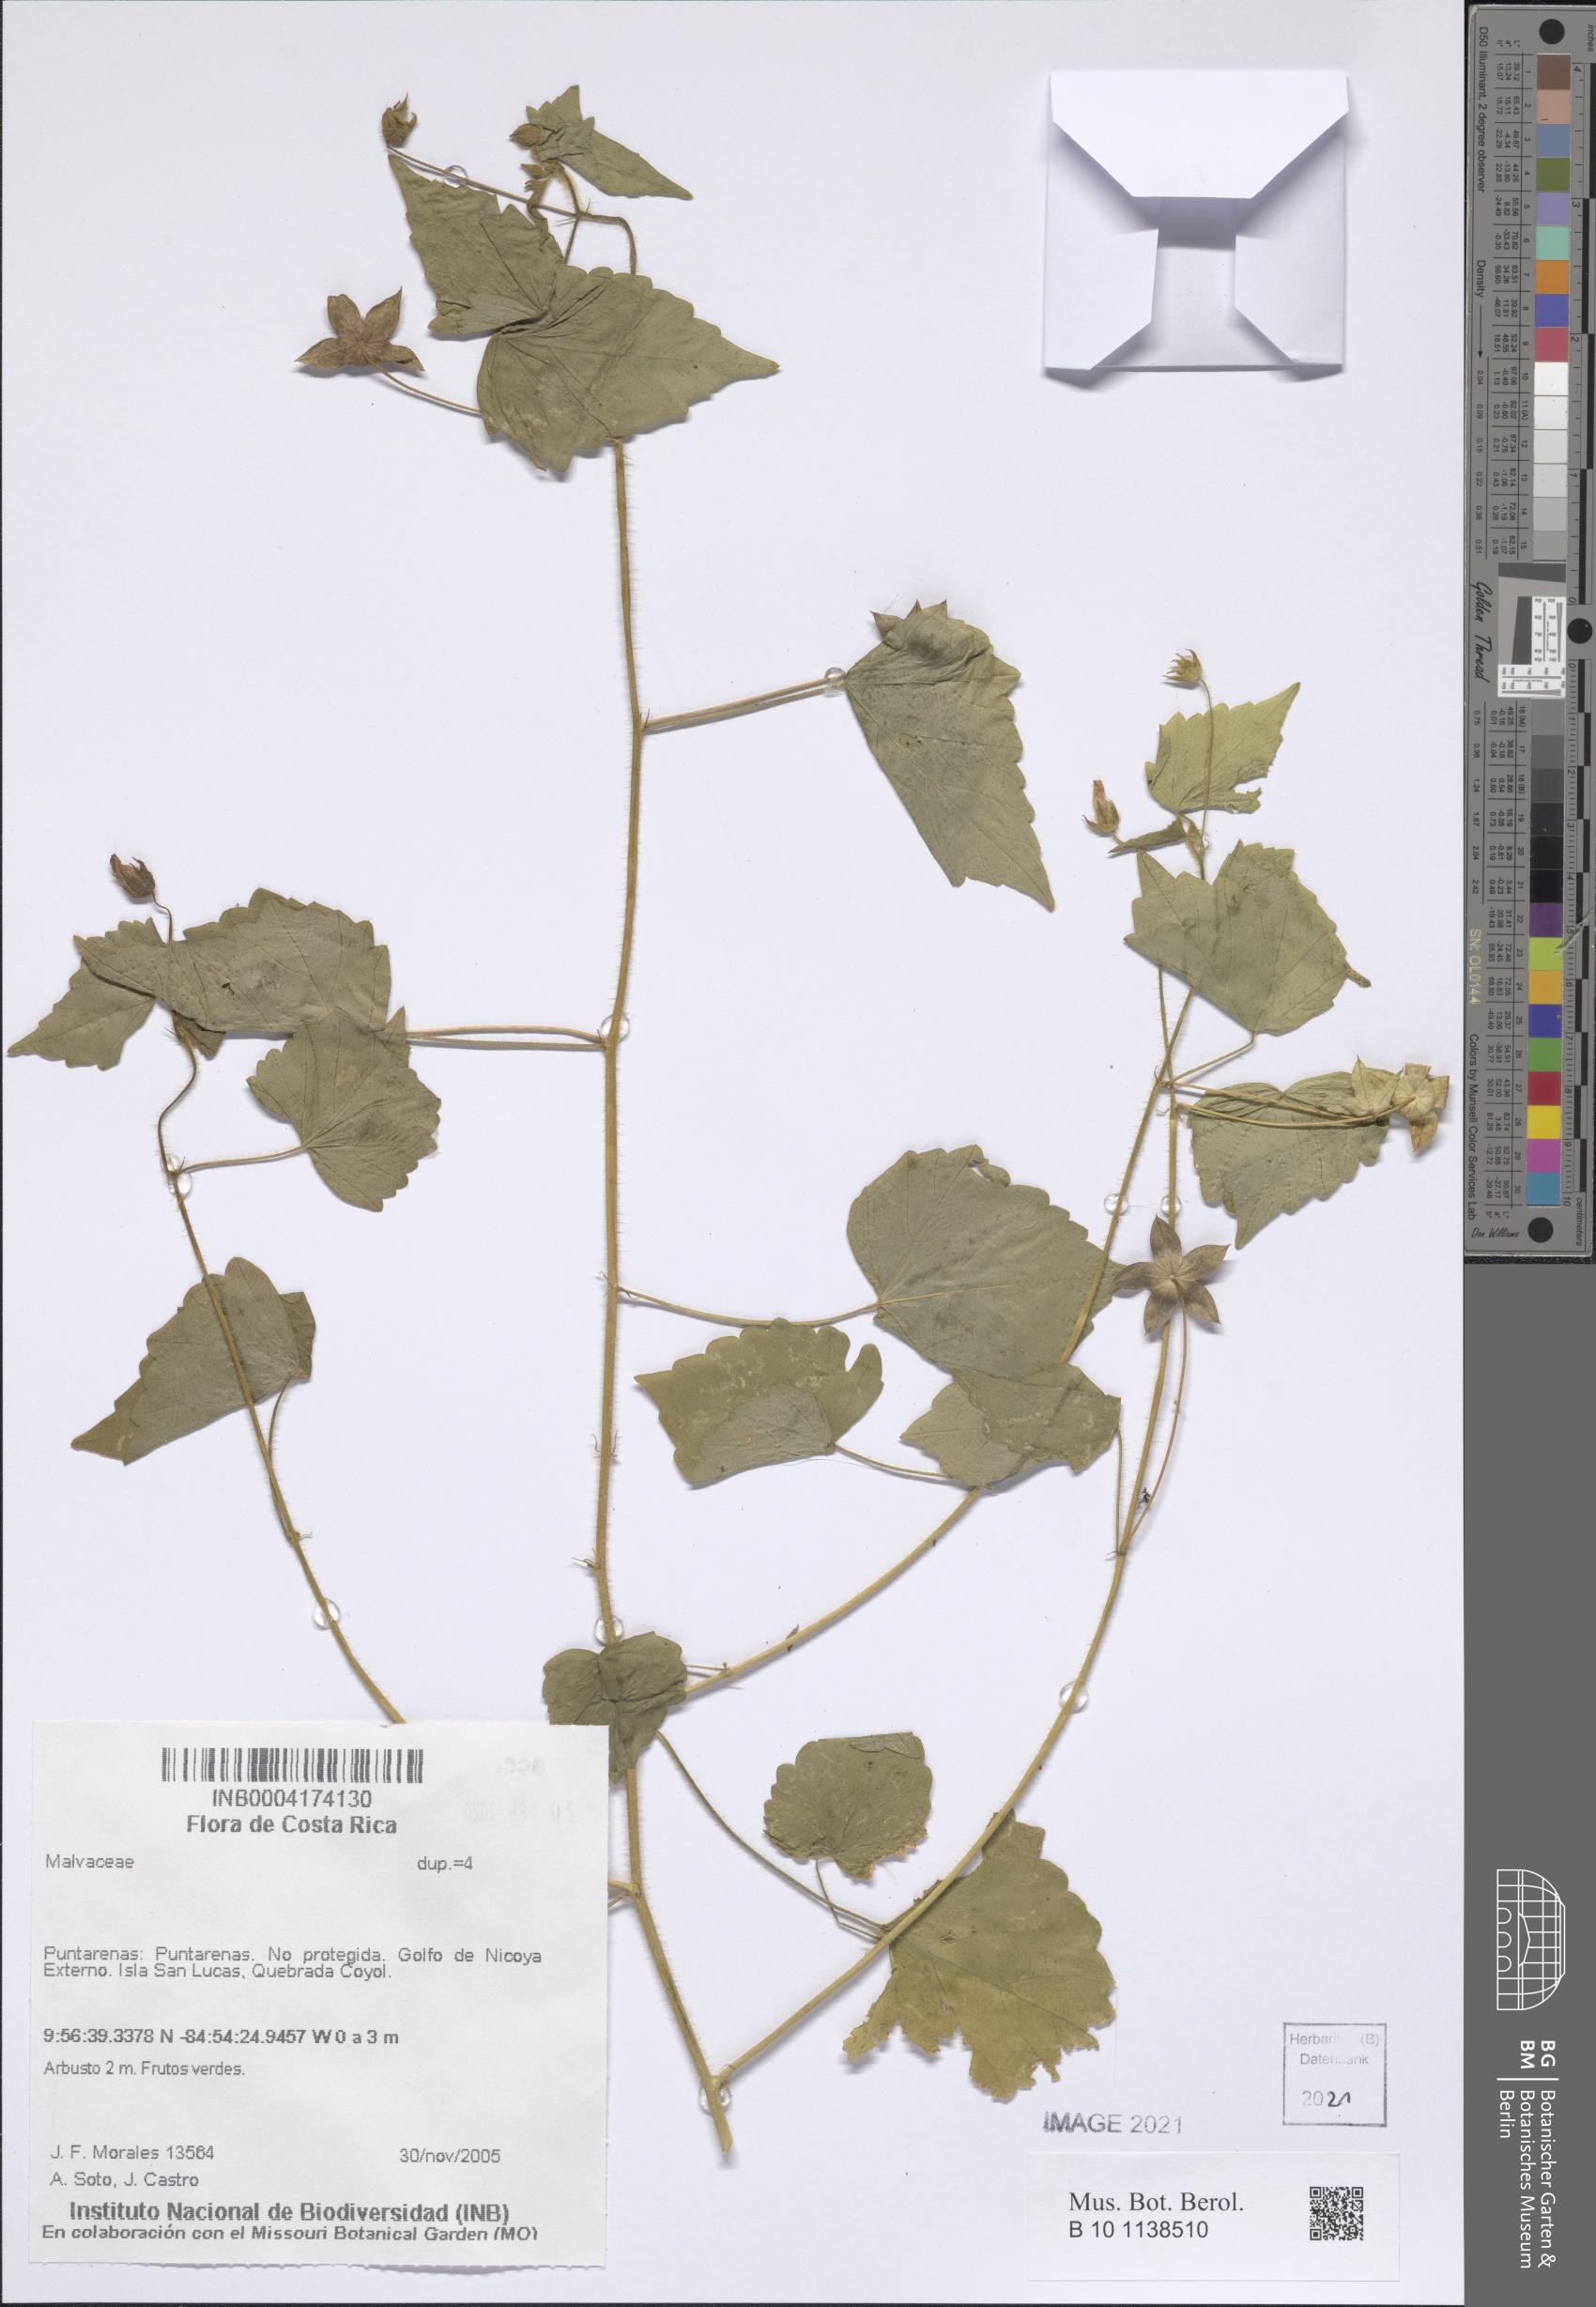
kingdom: Plantae
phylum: Tracheophyta
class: Magnoliopsida
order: Malvales
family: Malvaceae
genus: Anoda
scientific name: Anoda cristata
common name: Spurred anoda
